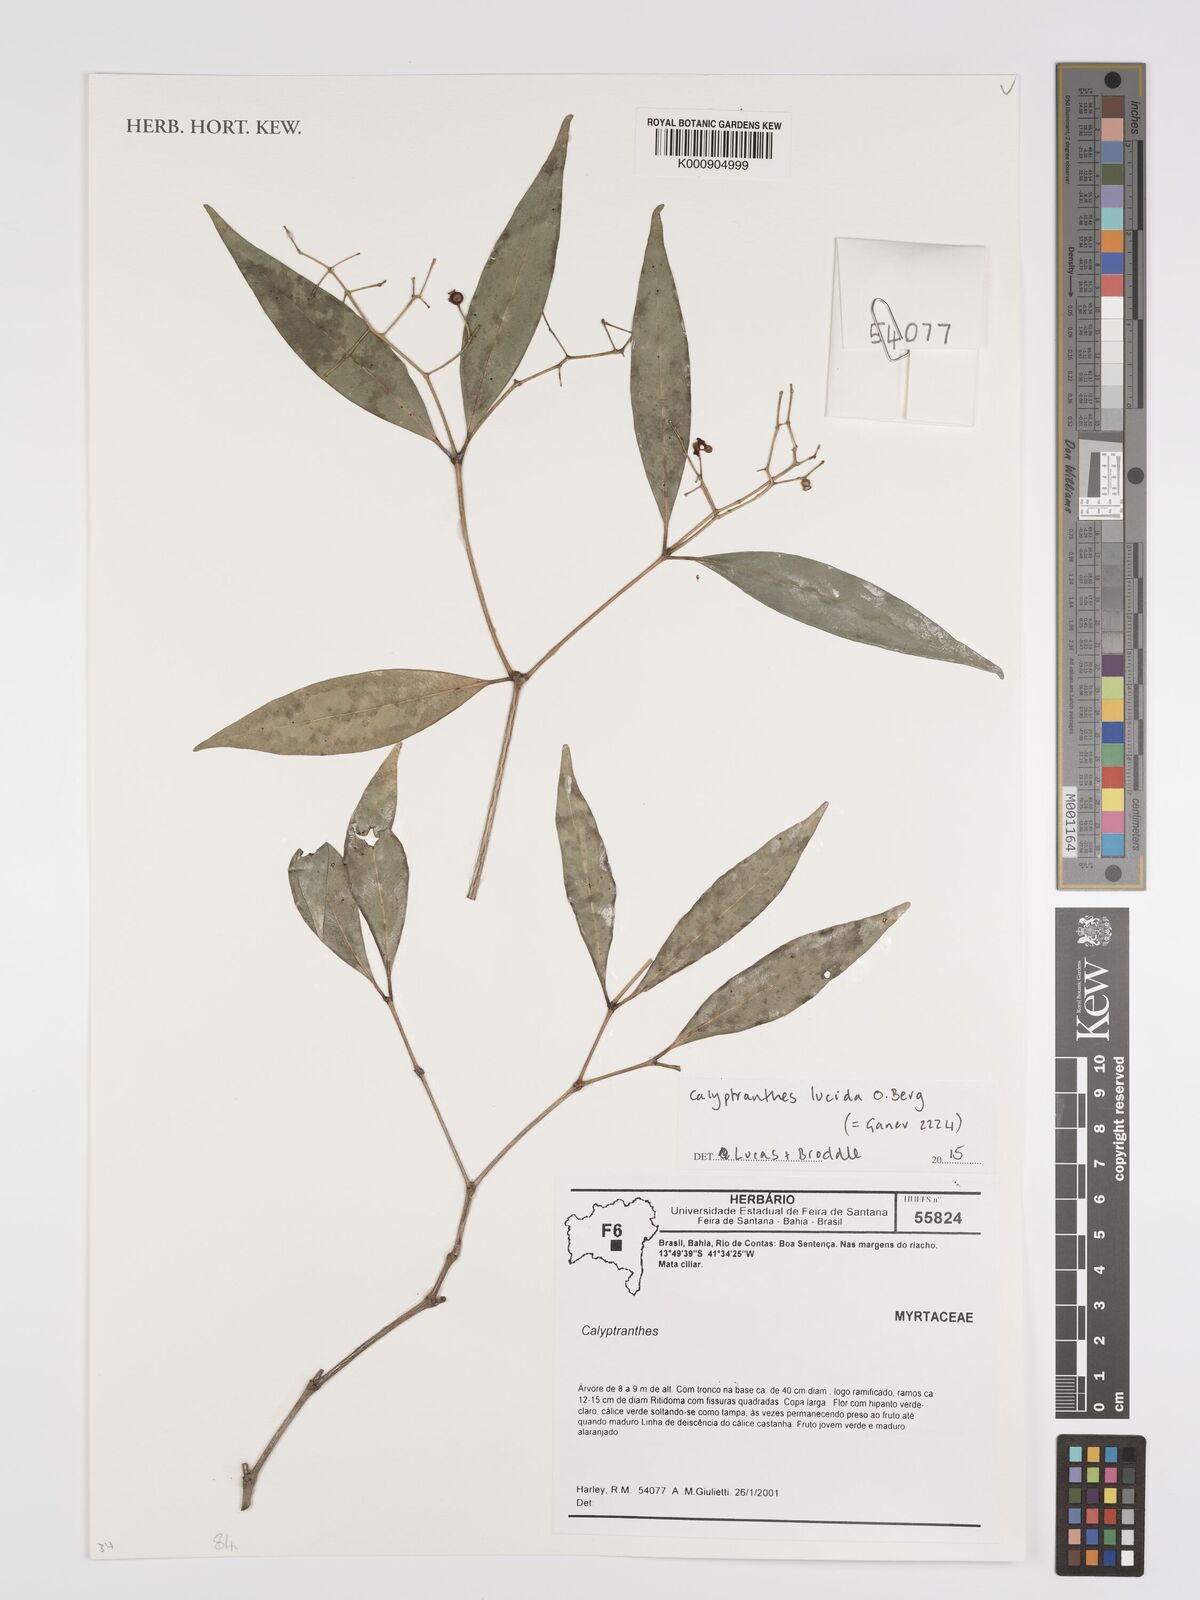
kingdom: Plantae
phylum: Tracheophyta
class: Magnoliopsida
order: Myrtales
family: Myrtaceae
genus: Calyptranthes
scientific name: Calyptranthes
